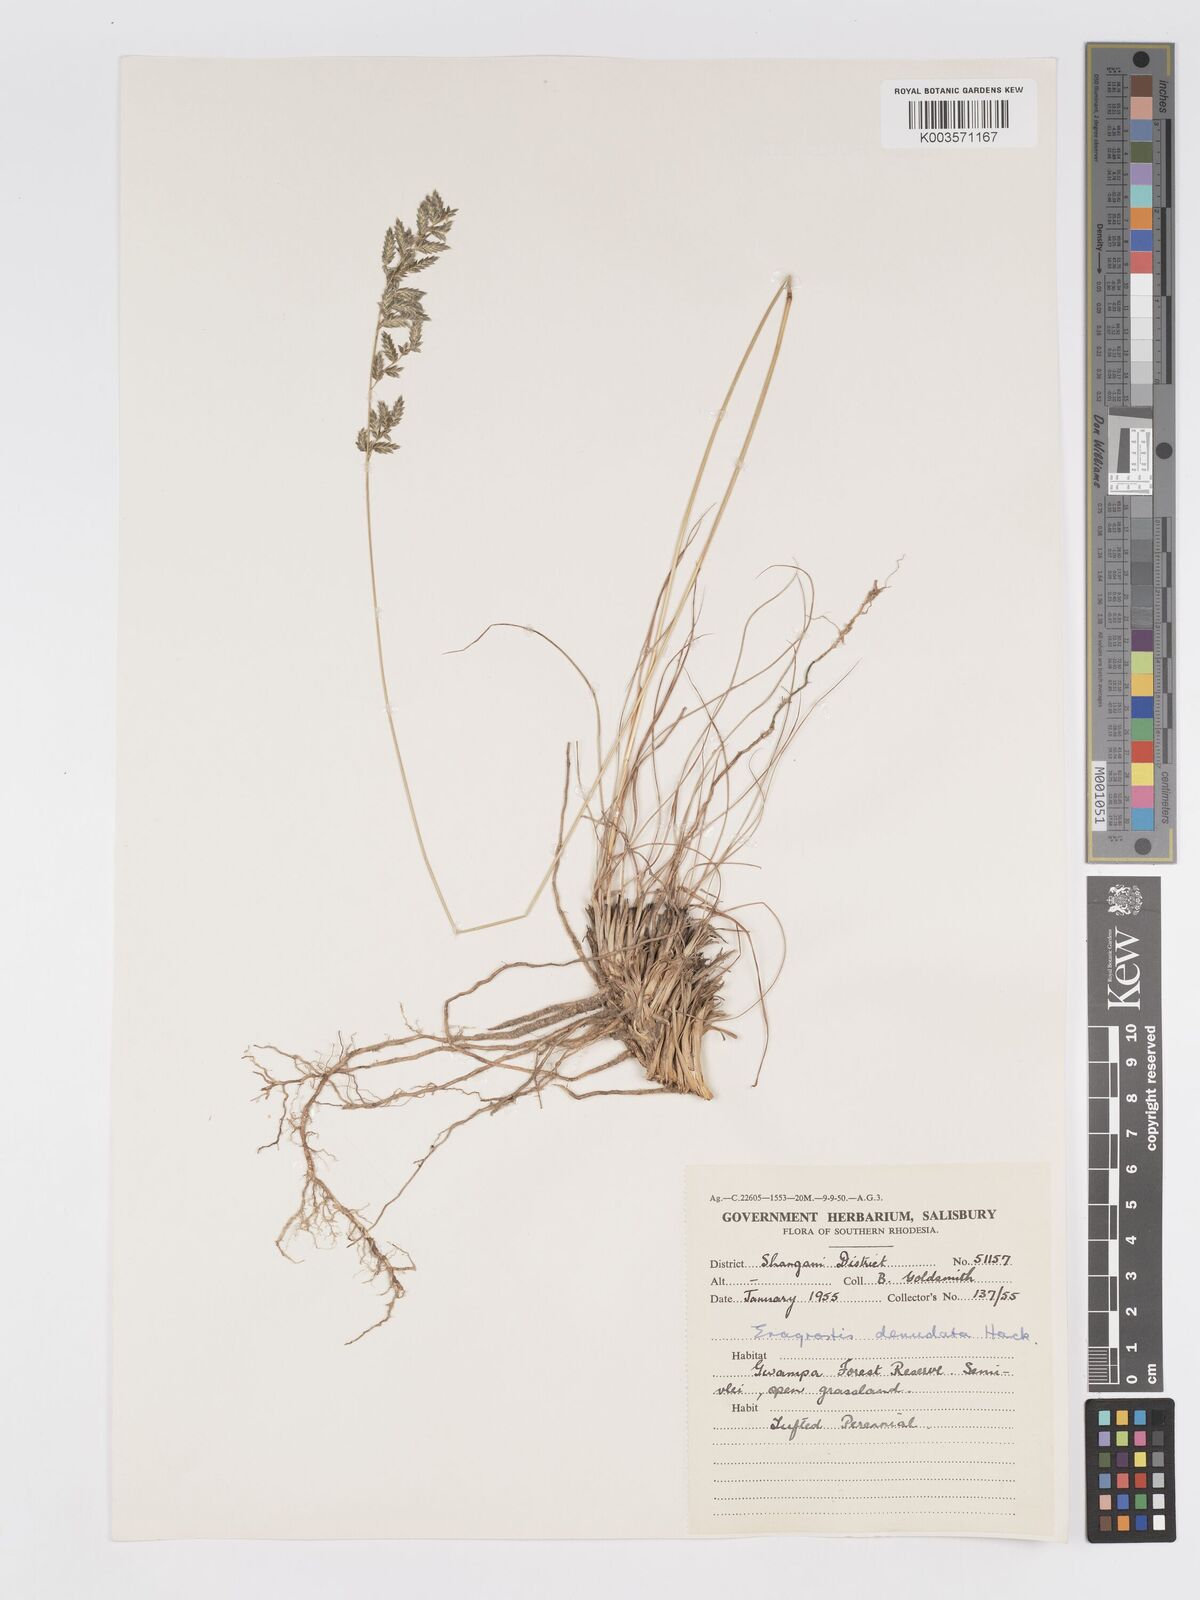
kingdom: Plantae
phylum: Tracheophyta
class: Liliopsida
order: Poales
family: Poaceae
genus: Eragrostis
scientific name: Eragrostis nindensis
